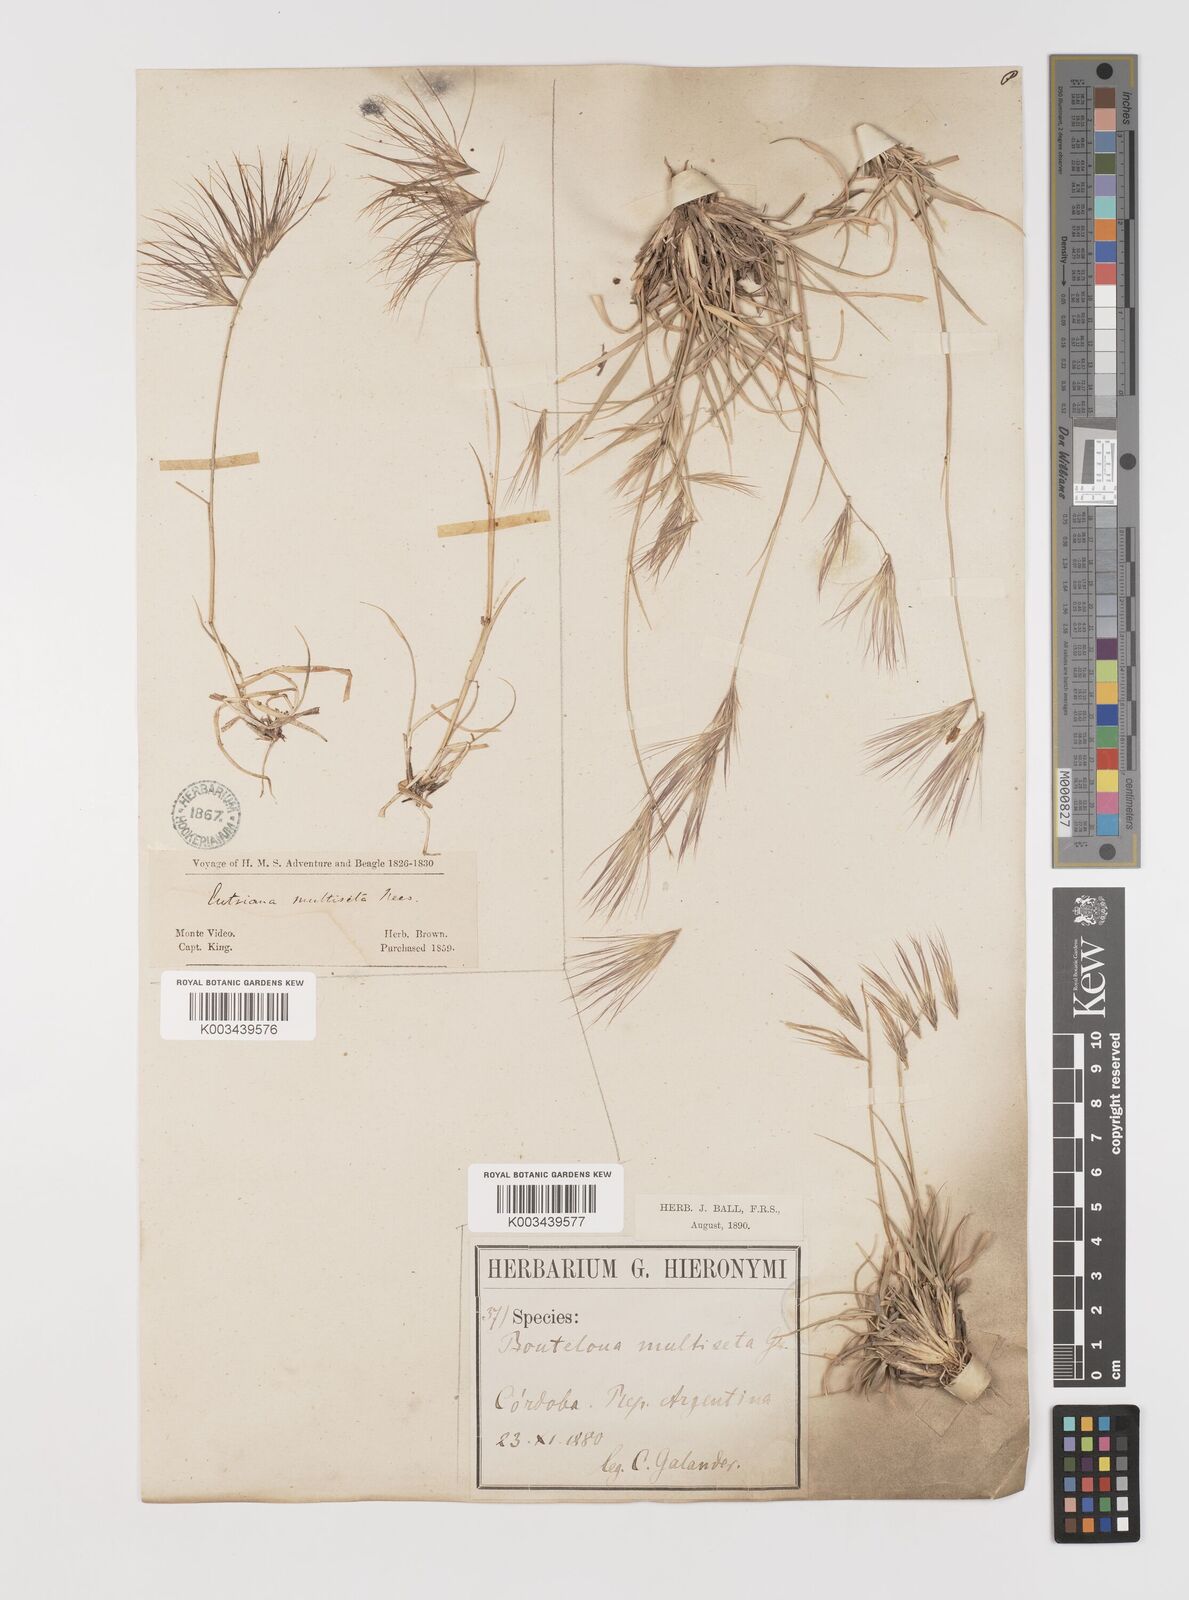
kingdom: Plantae
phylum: Tracheophyta
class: Liliopsida
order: Poales
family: Poaceae
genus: Bouteloua
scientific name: Bouteloua megapotamica
